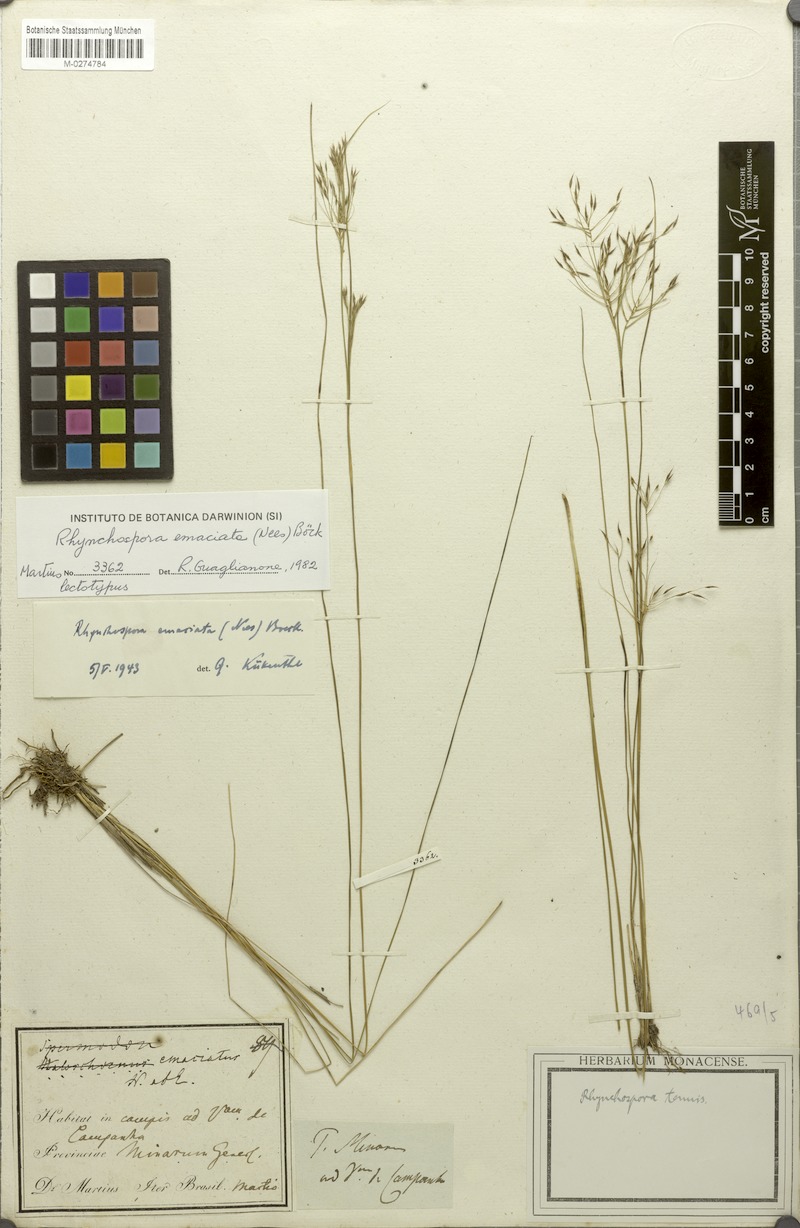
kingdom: Plantae
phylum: Tracheophyta
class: Liliopsida
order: Poales
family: Cyperaceae
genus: Rhynchospora
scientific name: Rhynchospora emaciata
